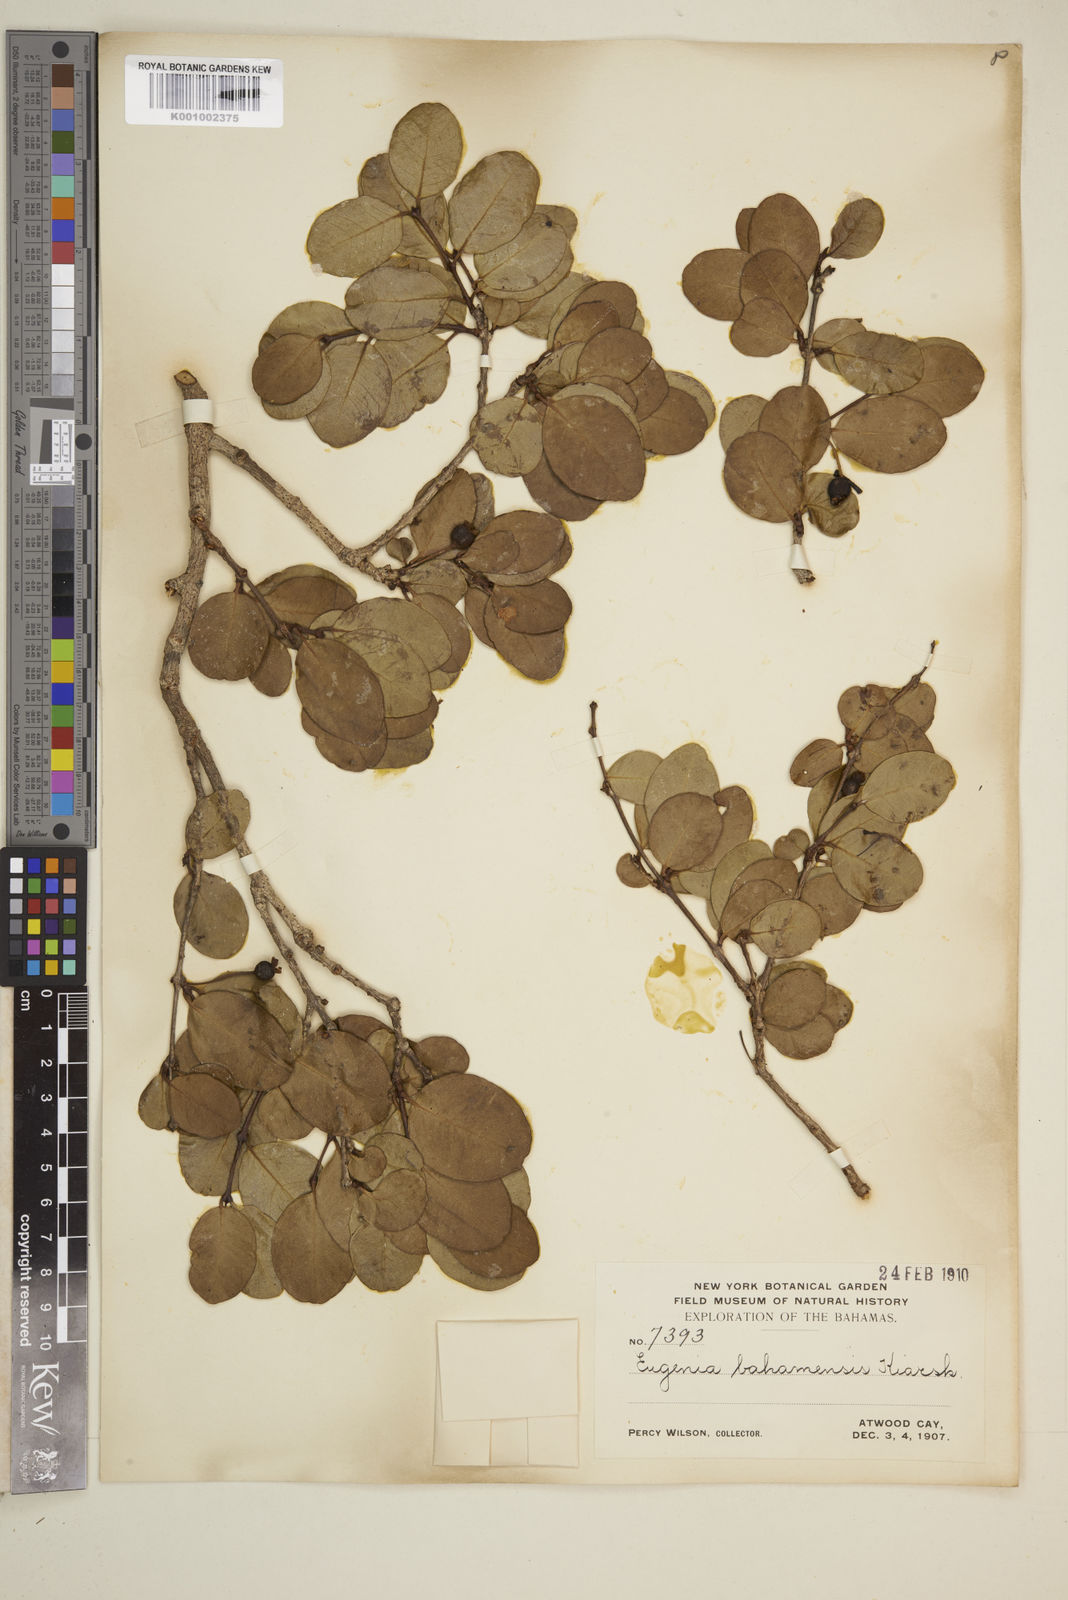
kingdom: Plantae
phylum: Tracheophyta
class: Magnoliopsida
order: Myrtales
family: Myrtaceae
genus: Mosiera
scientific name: Mosiera longipes
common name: Bahama stopper
